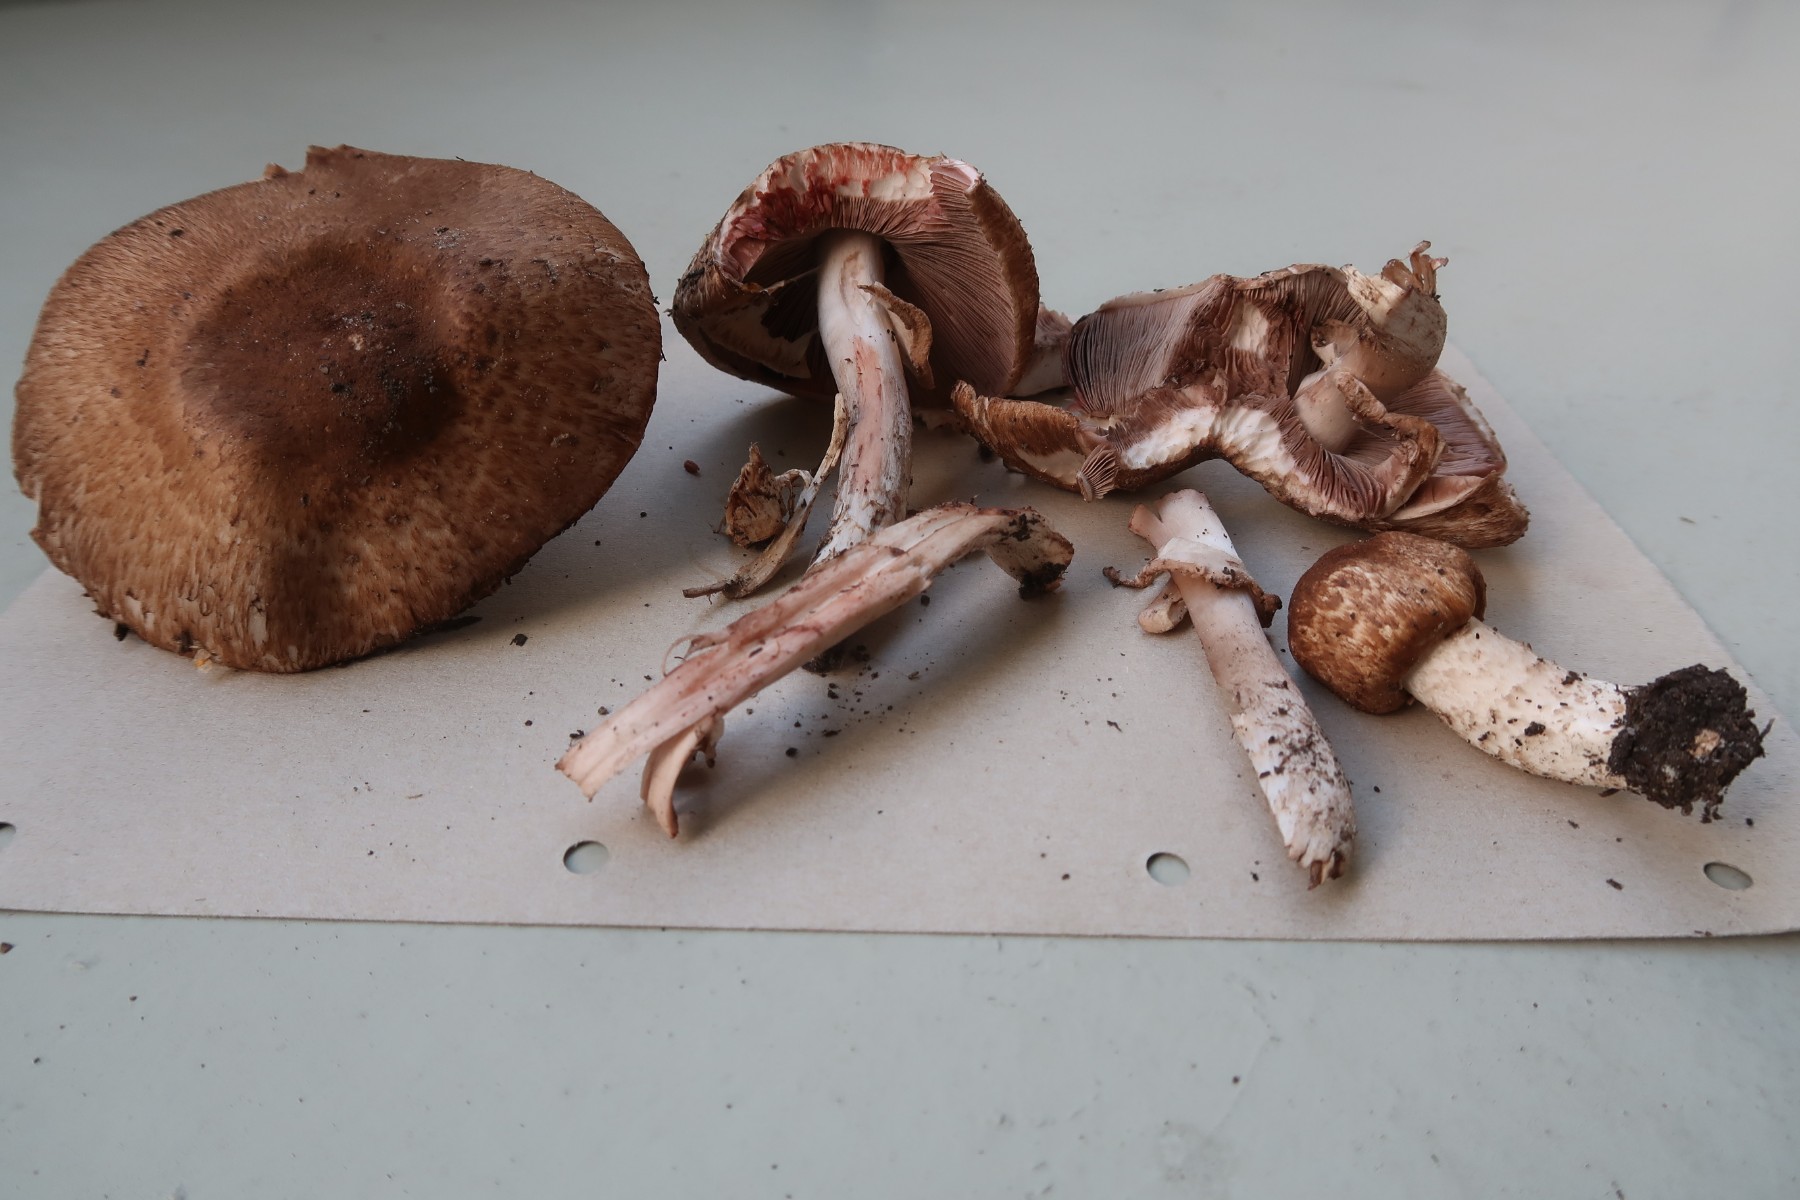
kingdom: Fungi
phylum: Basidiomycota
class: Agaricomycetes
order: Agaricales
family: Agaricaceae
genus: Agaricus
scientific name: Agaricus langei
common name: stor blod-champignon
